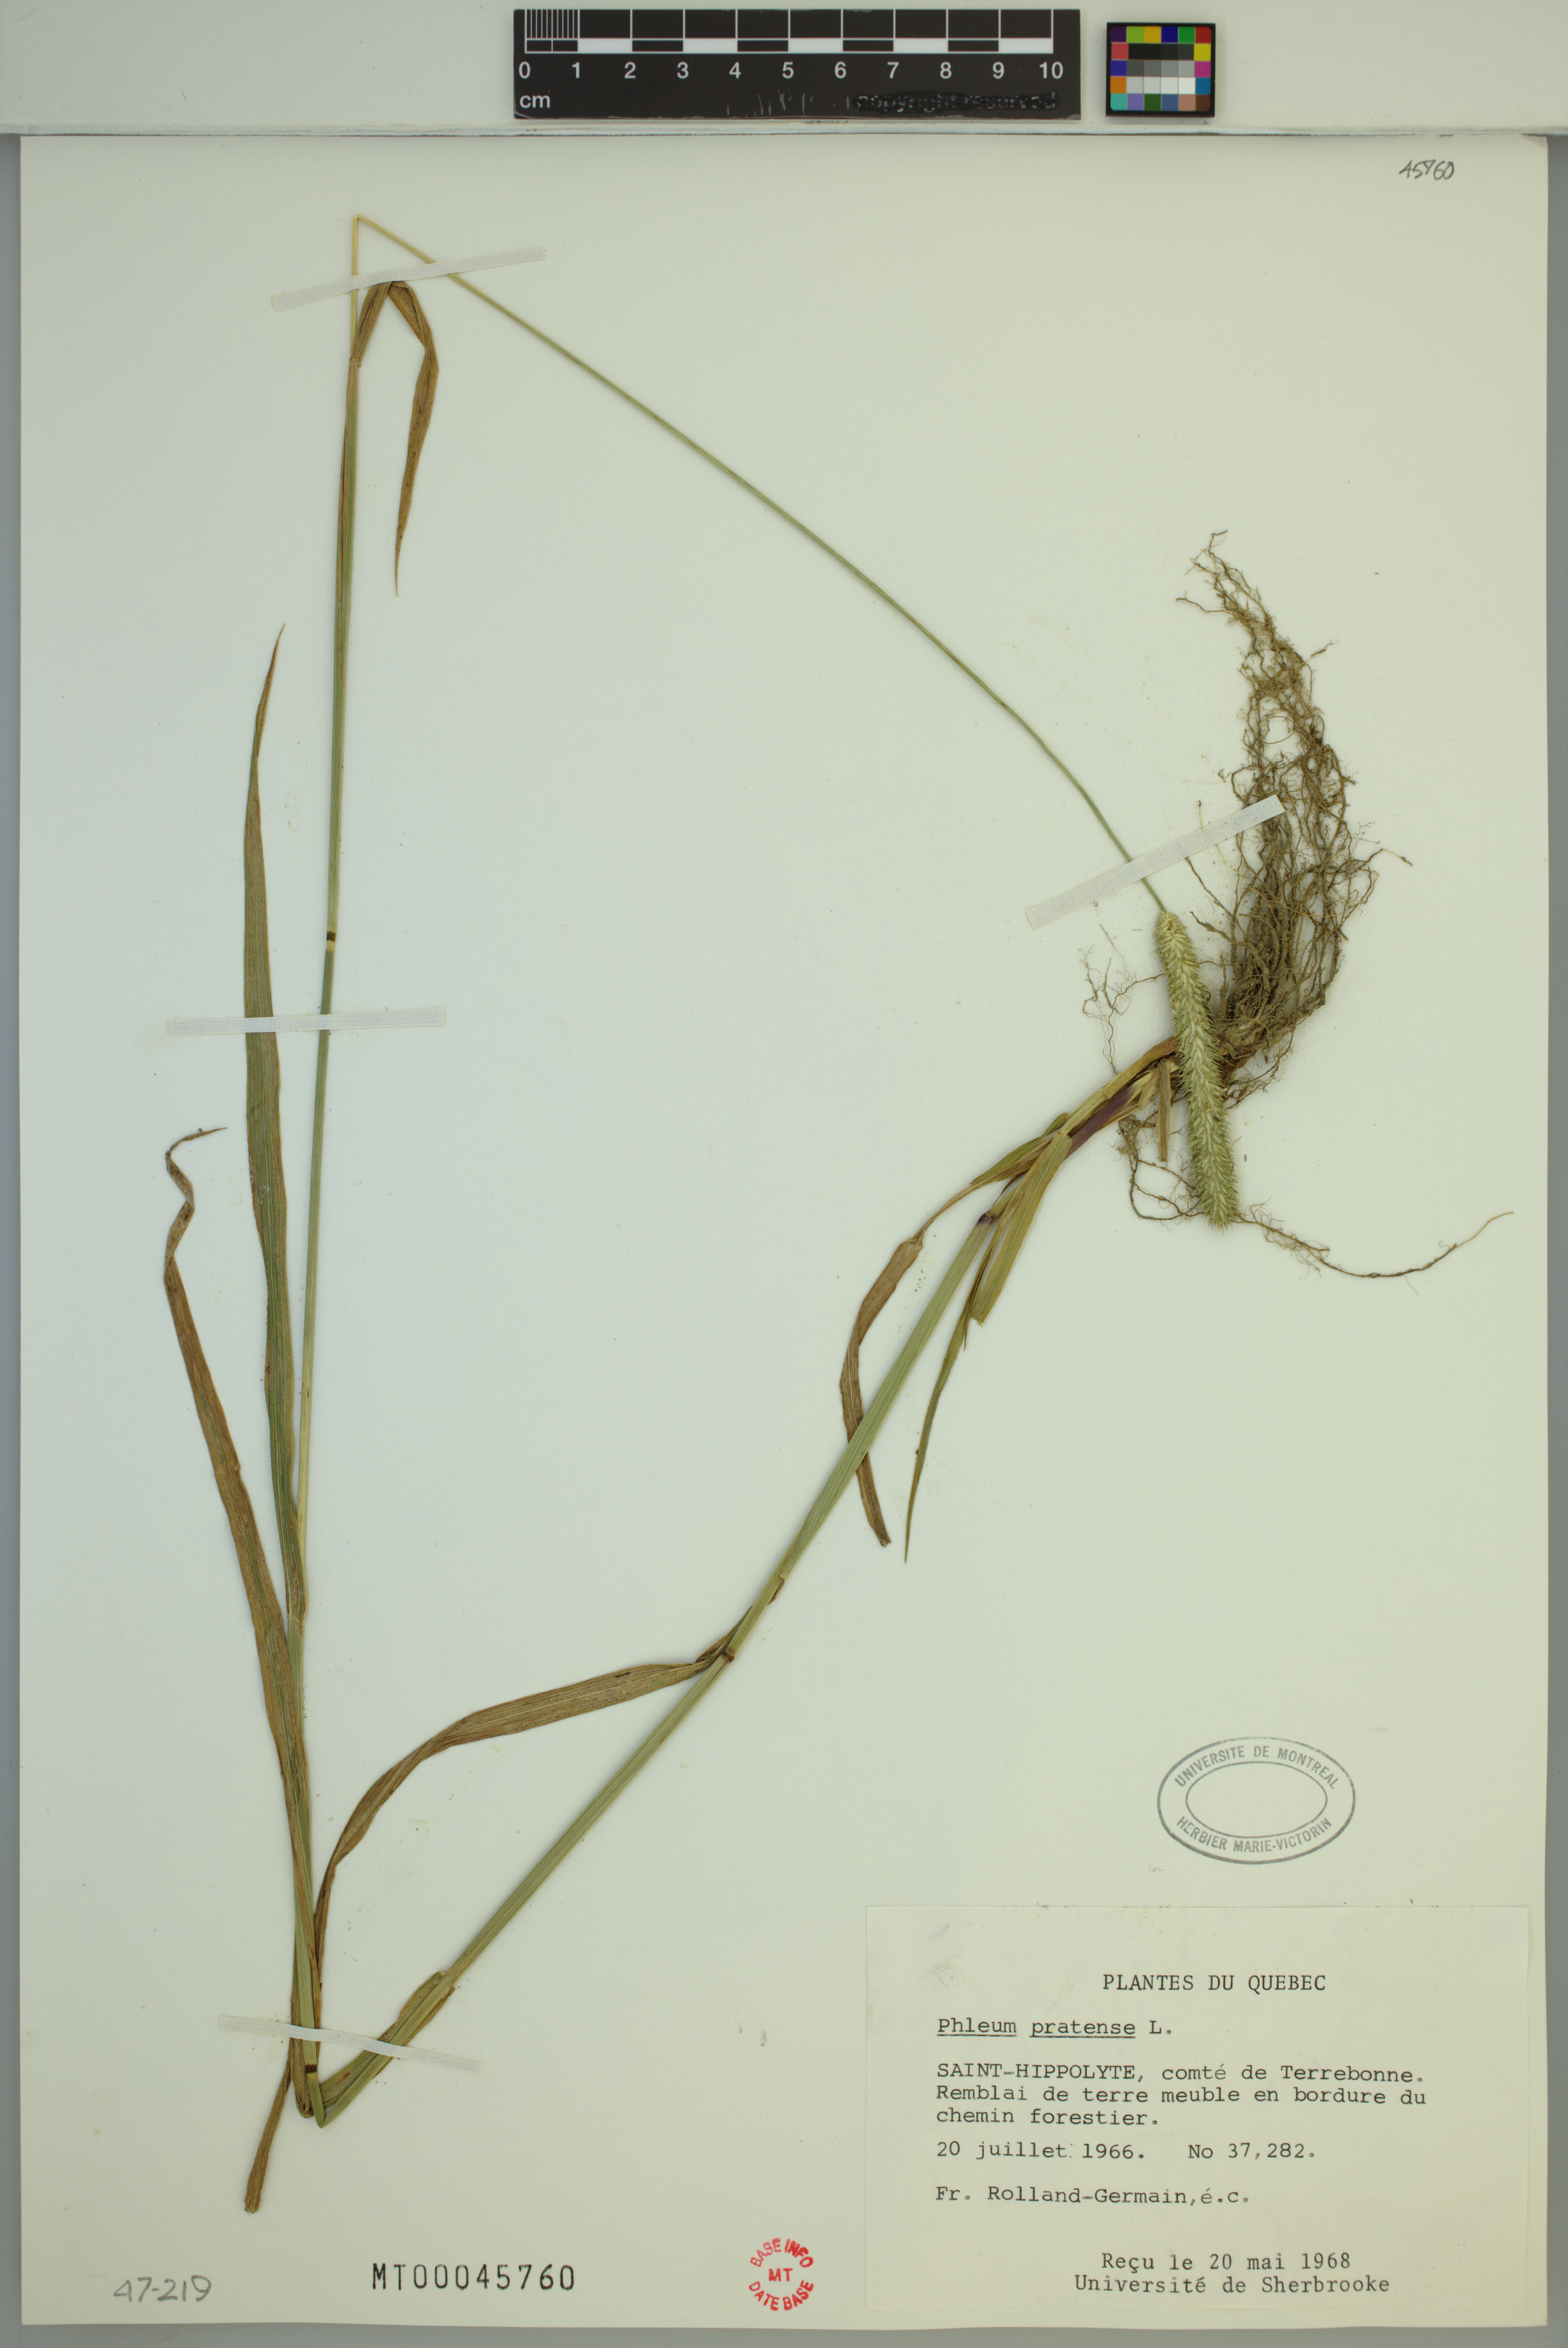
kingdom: Plantae
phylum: Tracheophyta
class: Liliopsida
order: Poales
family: Poaceae
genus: Phleum
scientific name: Phleum pratense
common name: Timothy grass
